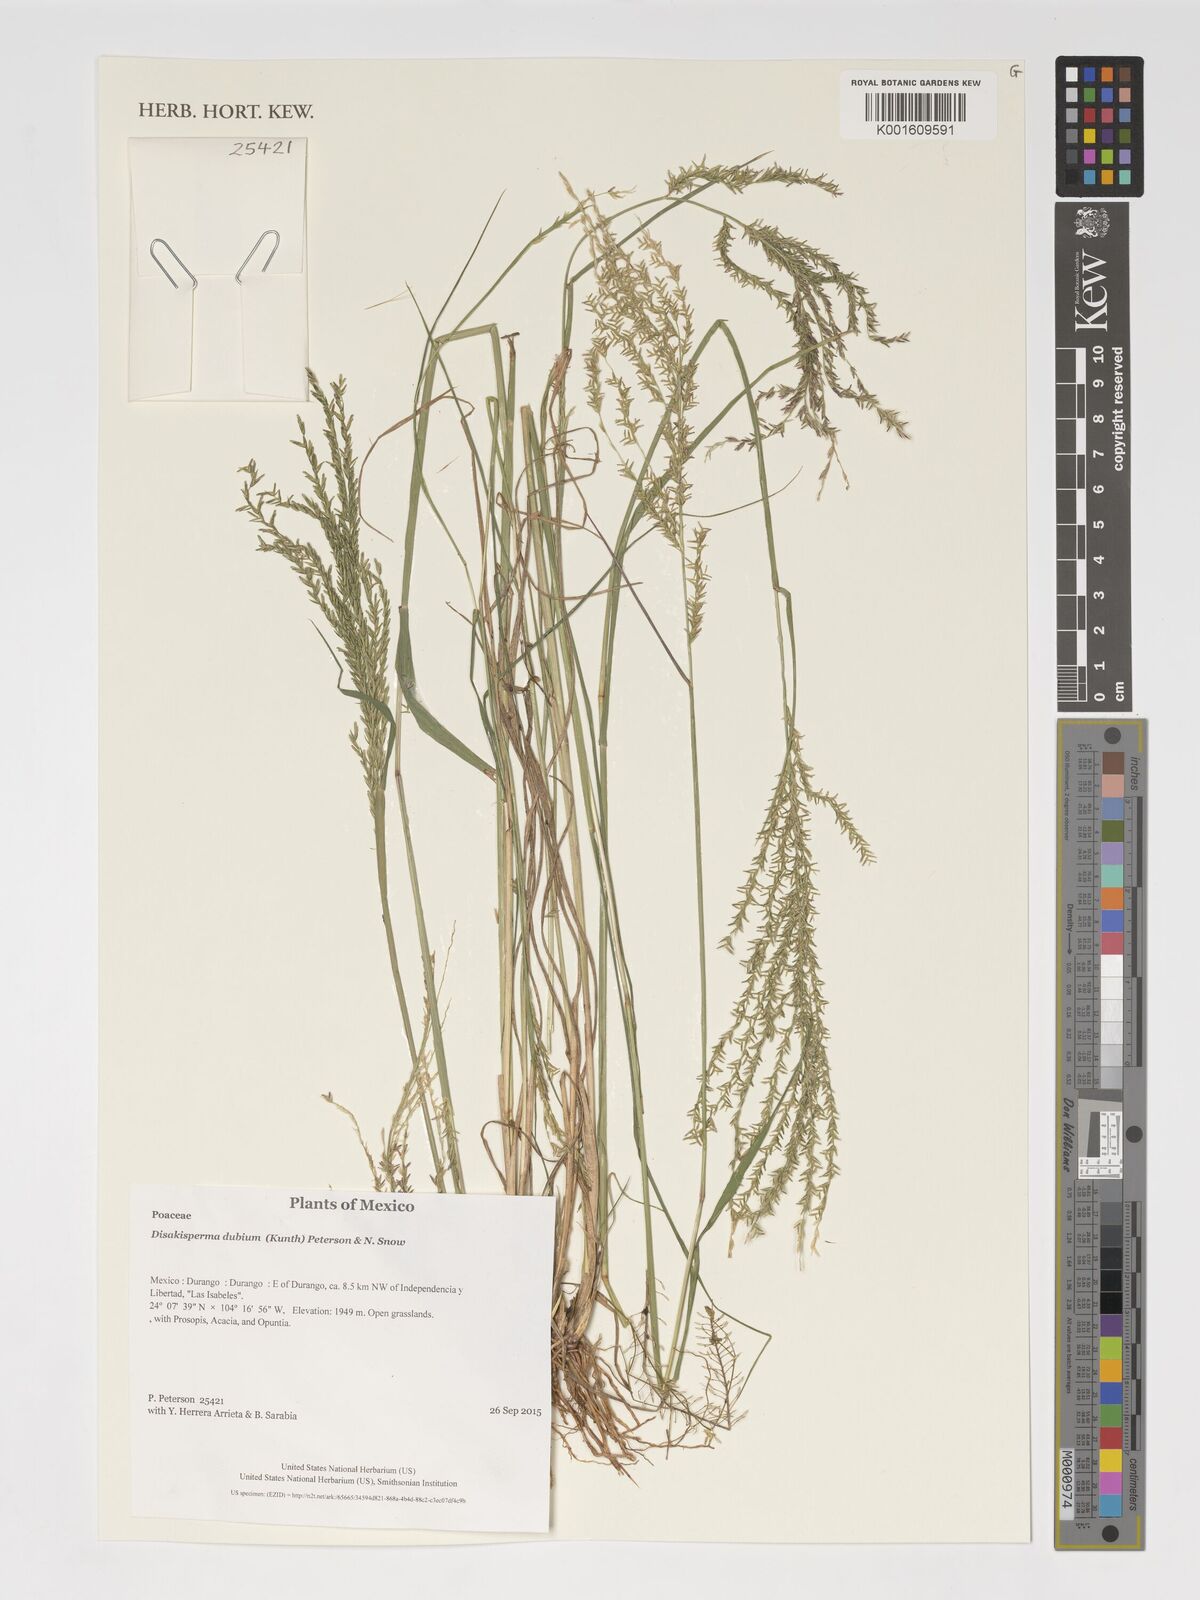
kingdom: Plantae
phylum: Tracheophyta
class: Liliopsida
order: Poales
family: Poaceae
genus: Disakisperma
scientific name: Disakisperma dubium
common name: Green sprangletop
